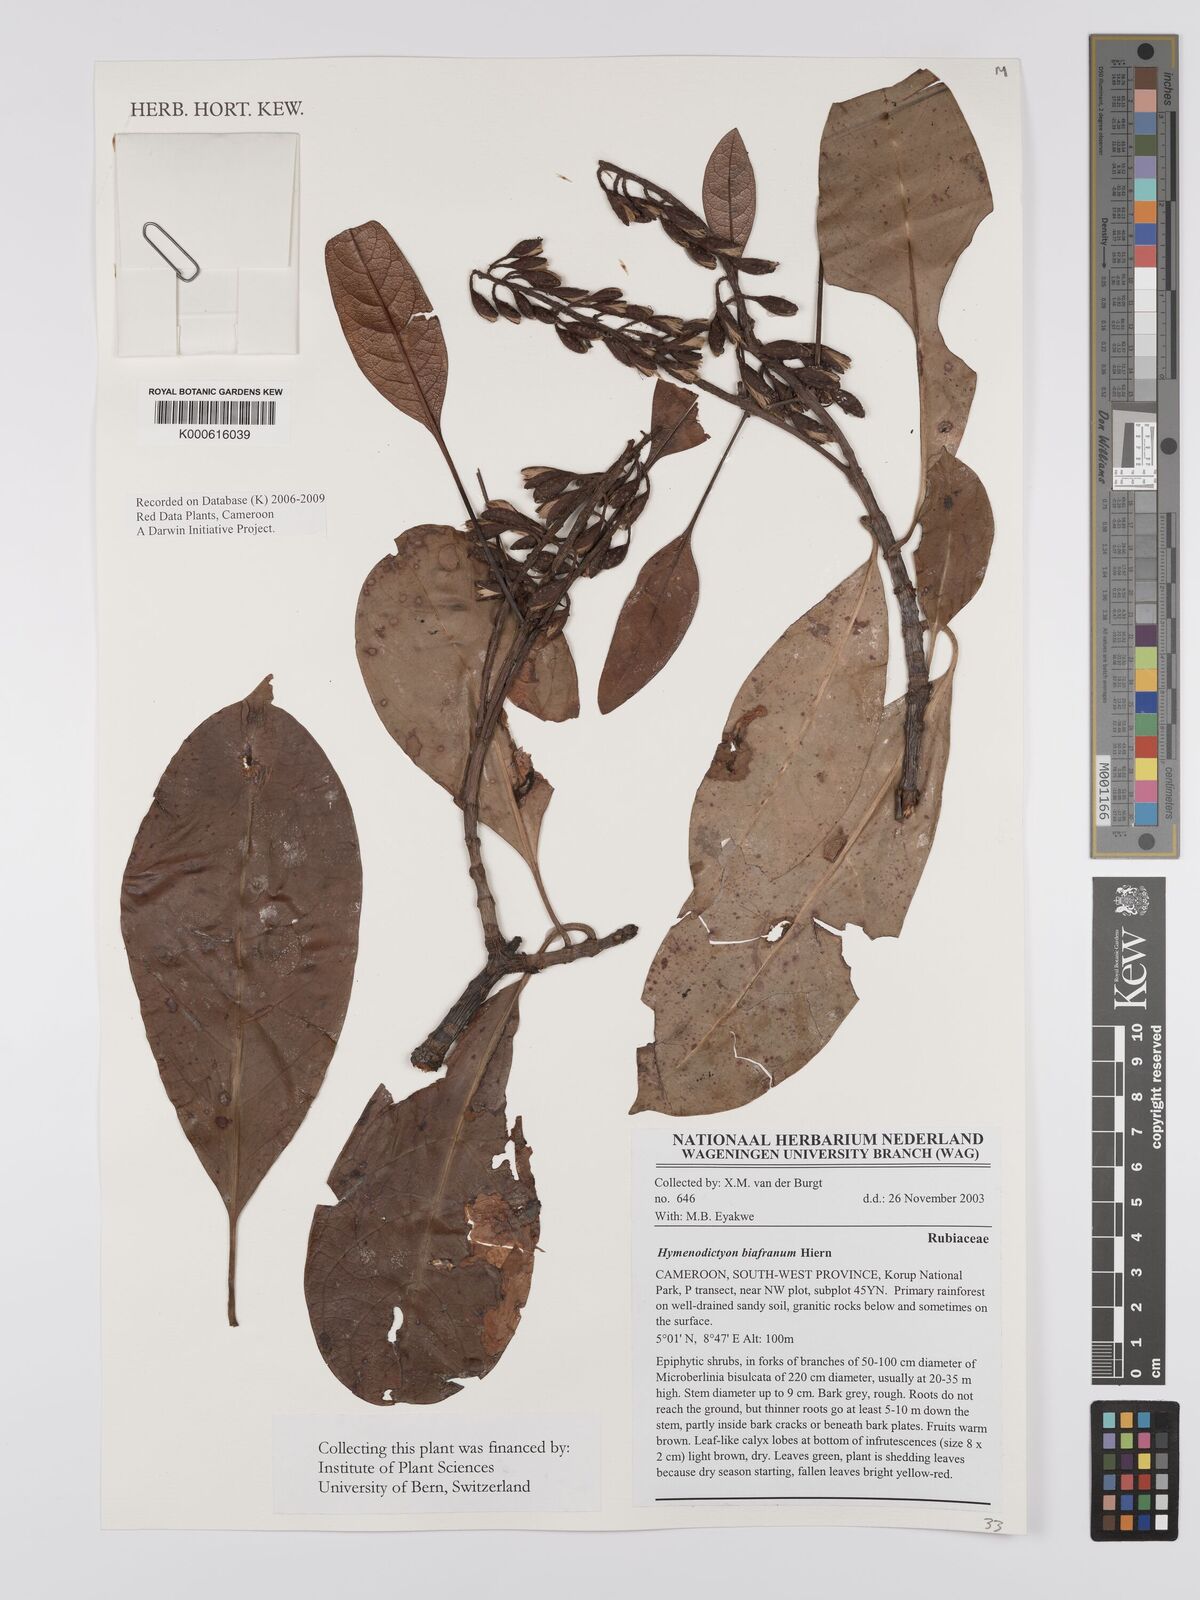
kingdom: Plantae
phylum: Tracheophyta
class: Magnoliopsida
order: Gentianales
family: Rubiaceae
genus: Hymenodictyon
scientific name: Hymenodictyon biafranum
